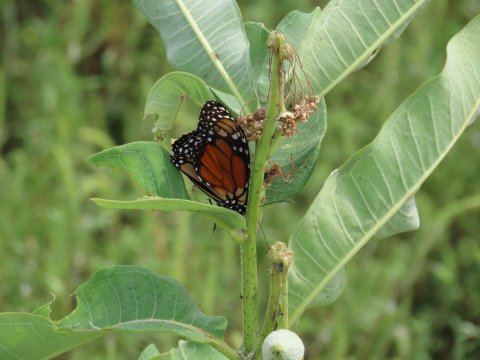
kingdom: Animalia
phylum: Arthropoda
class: Insecta
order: Lepidoptera
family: Nymphalidae
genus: Danaus
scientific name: Danaus plexippus
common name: Monarch
